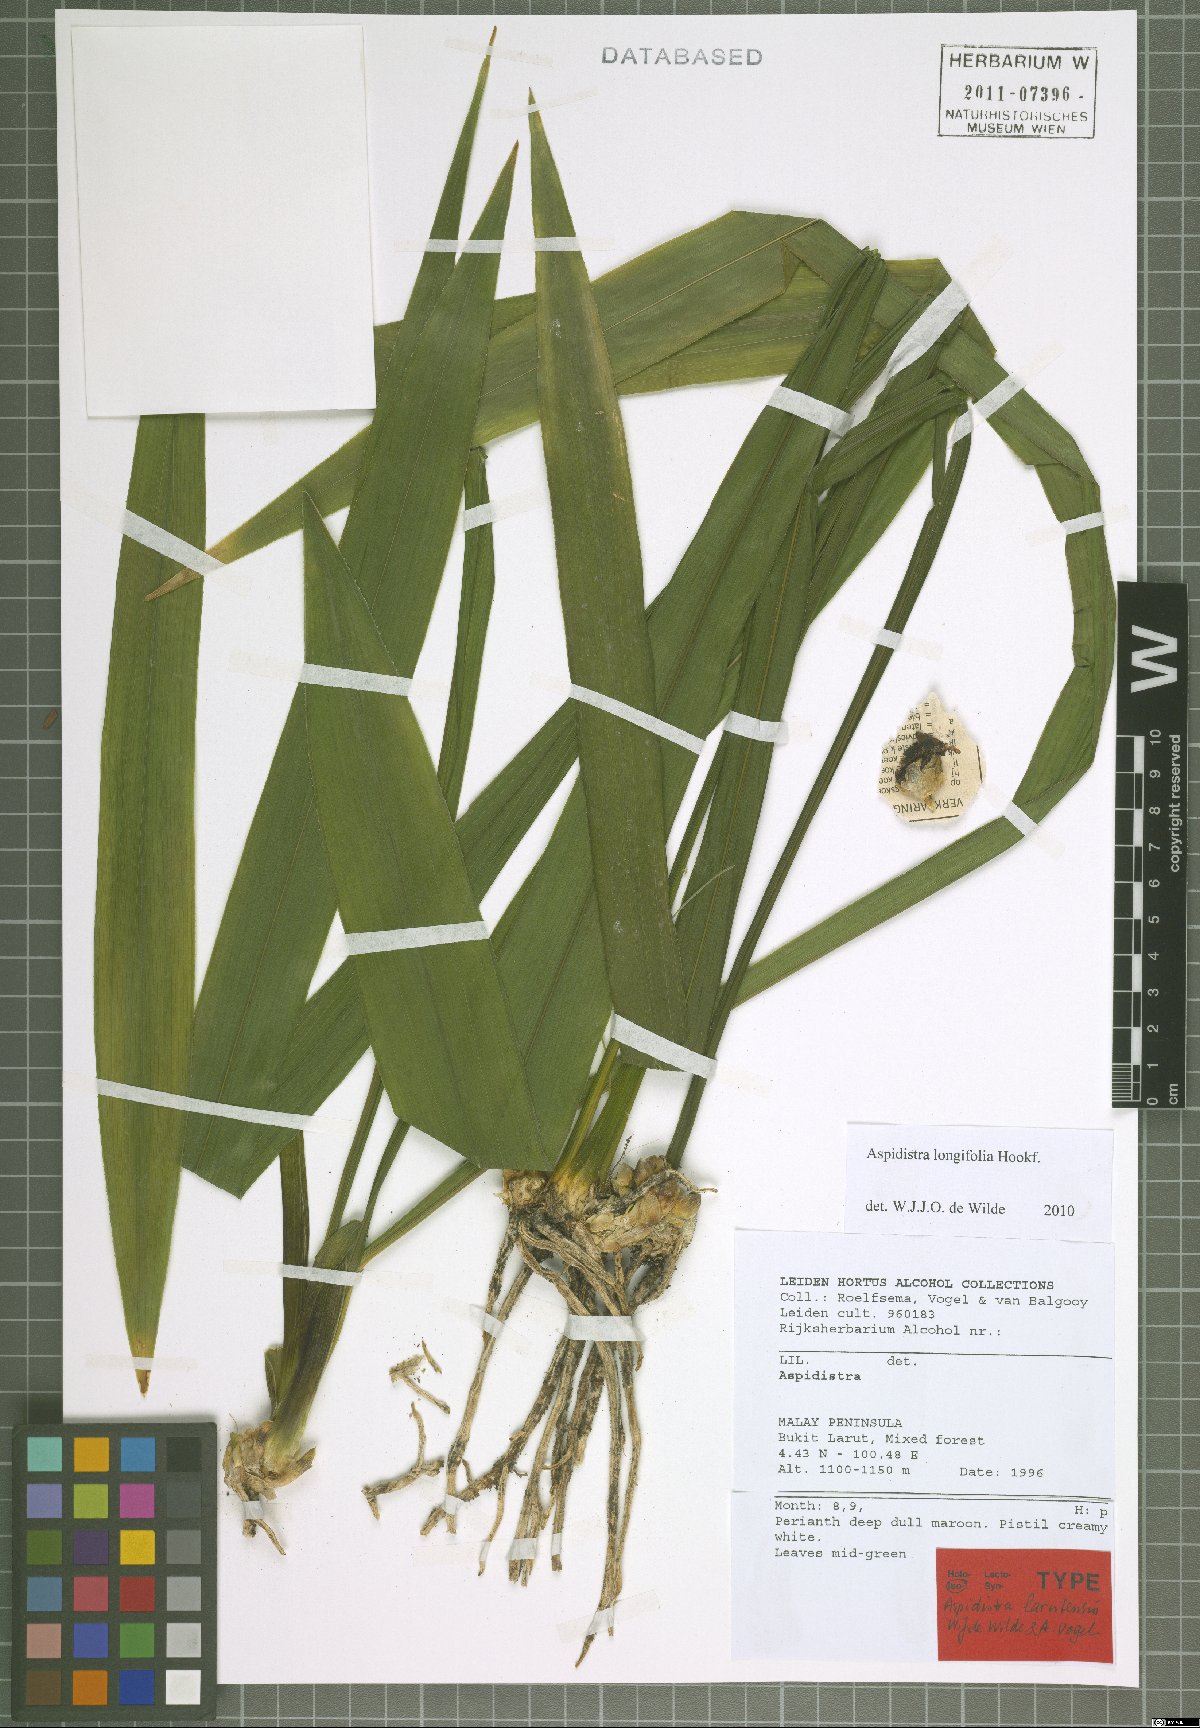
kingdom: Plantae
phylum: Tracheophyta
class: Liliopsida
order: Asparagales
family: Asparagaceae
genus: Aspidistra
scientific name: Aspidistra longifolia
